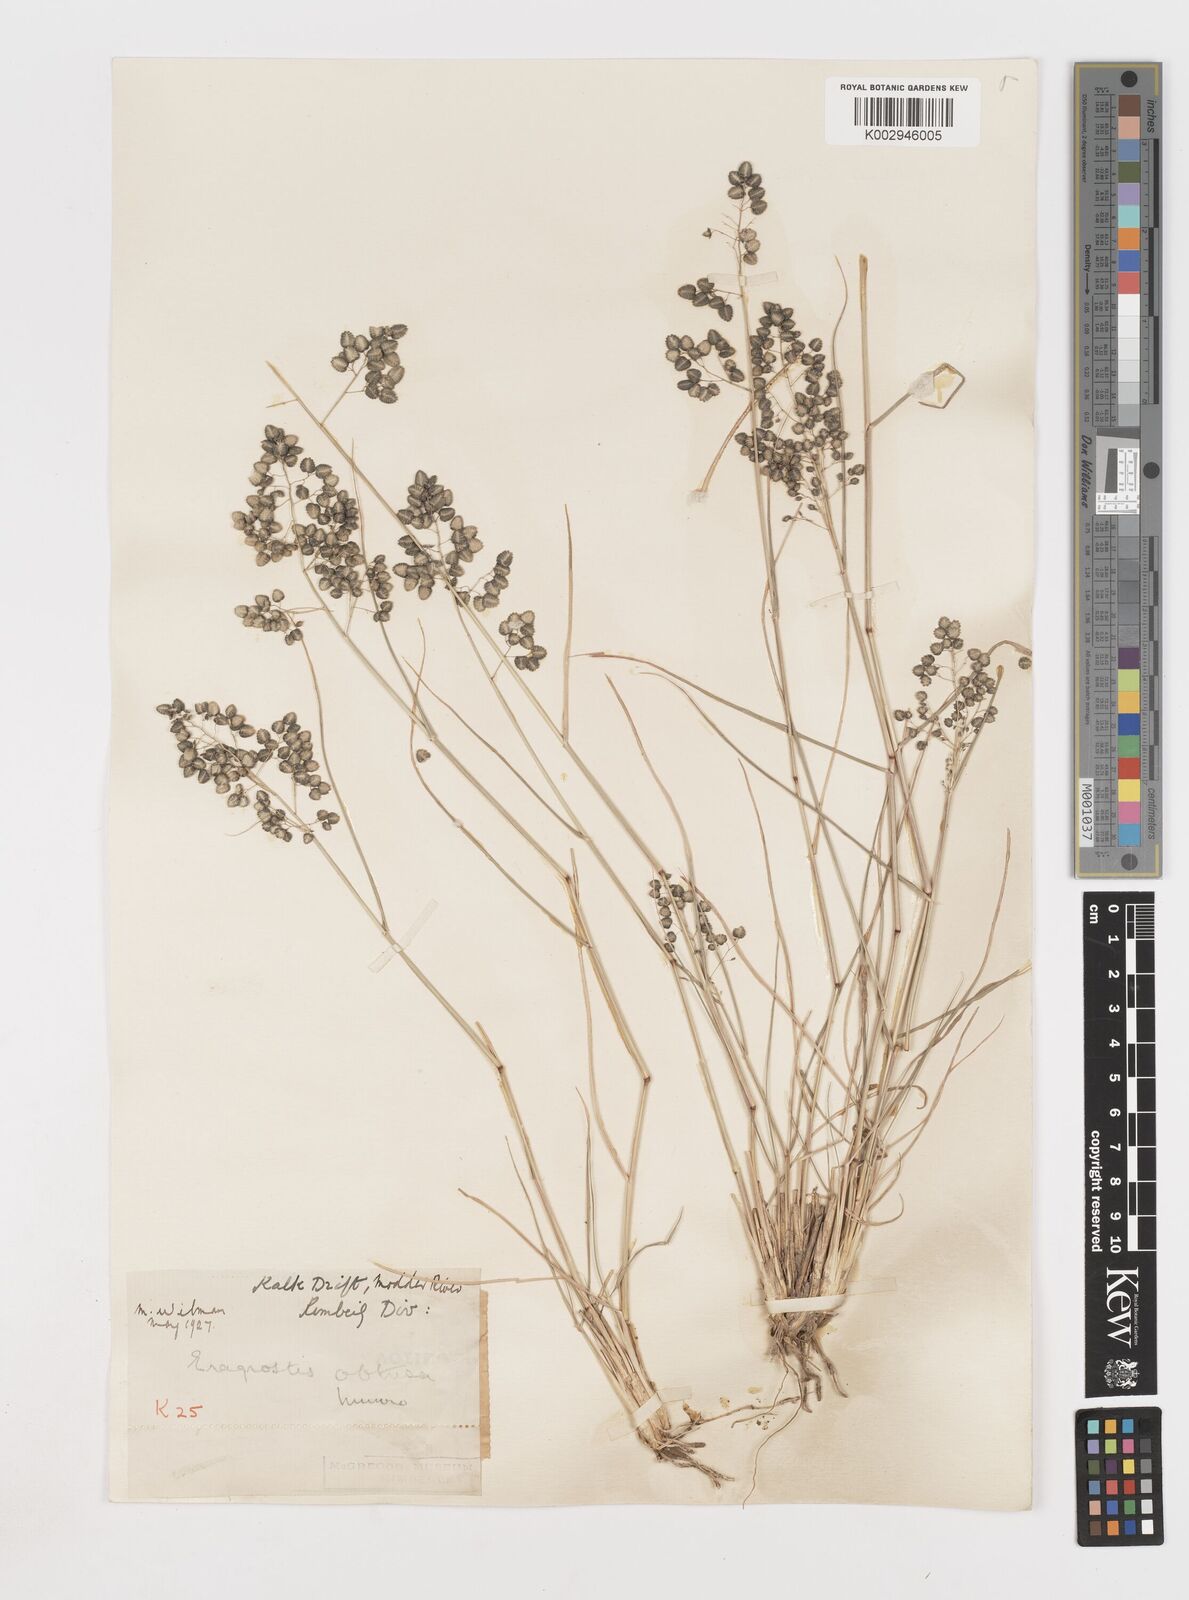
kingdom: Plantae
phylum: Tracheophyta
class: Liliopsida
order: Poales
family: Poaceae
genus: Eragrostis
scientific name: Eragrostis obtusa
